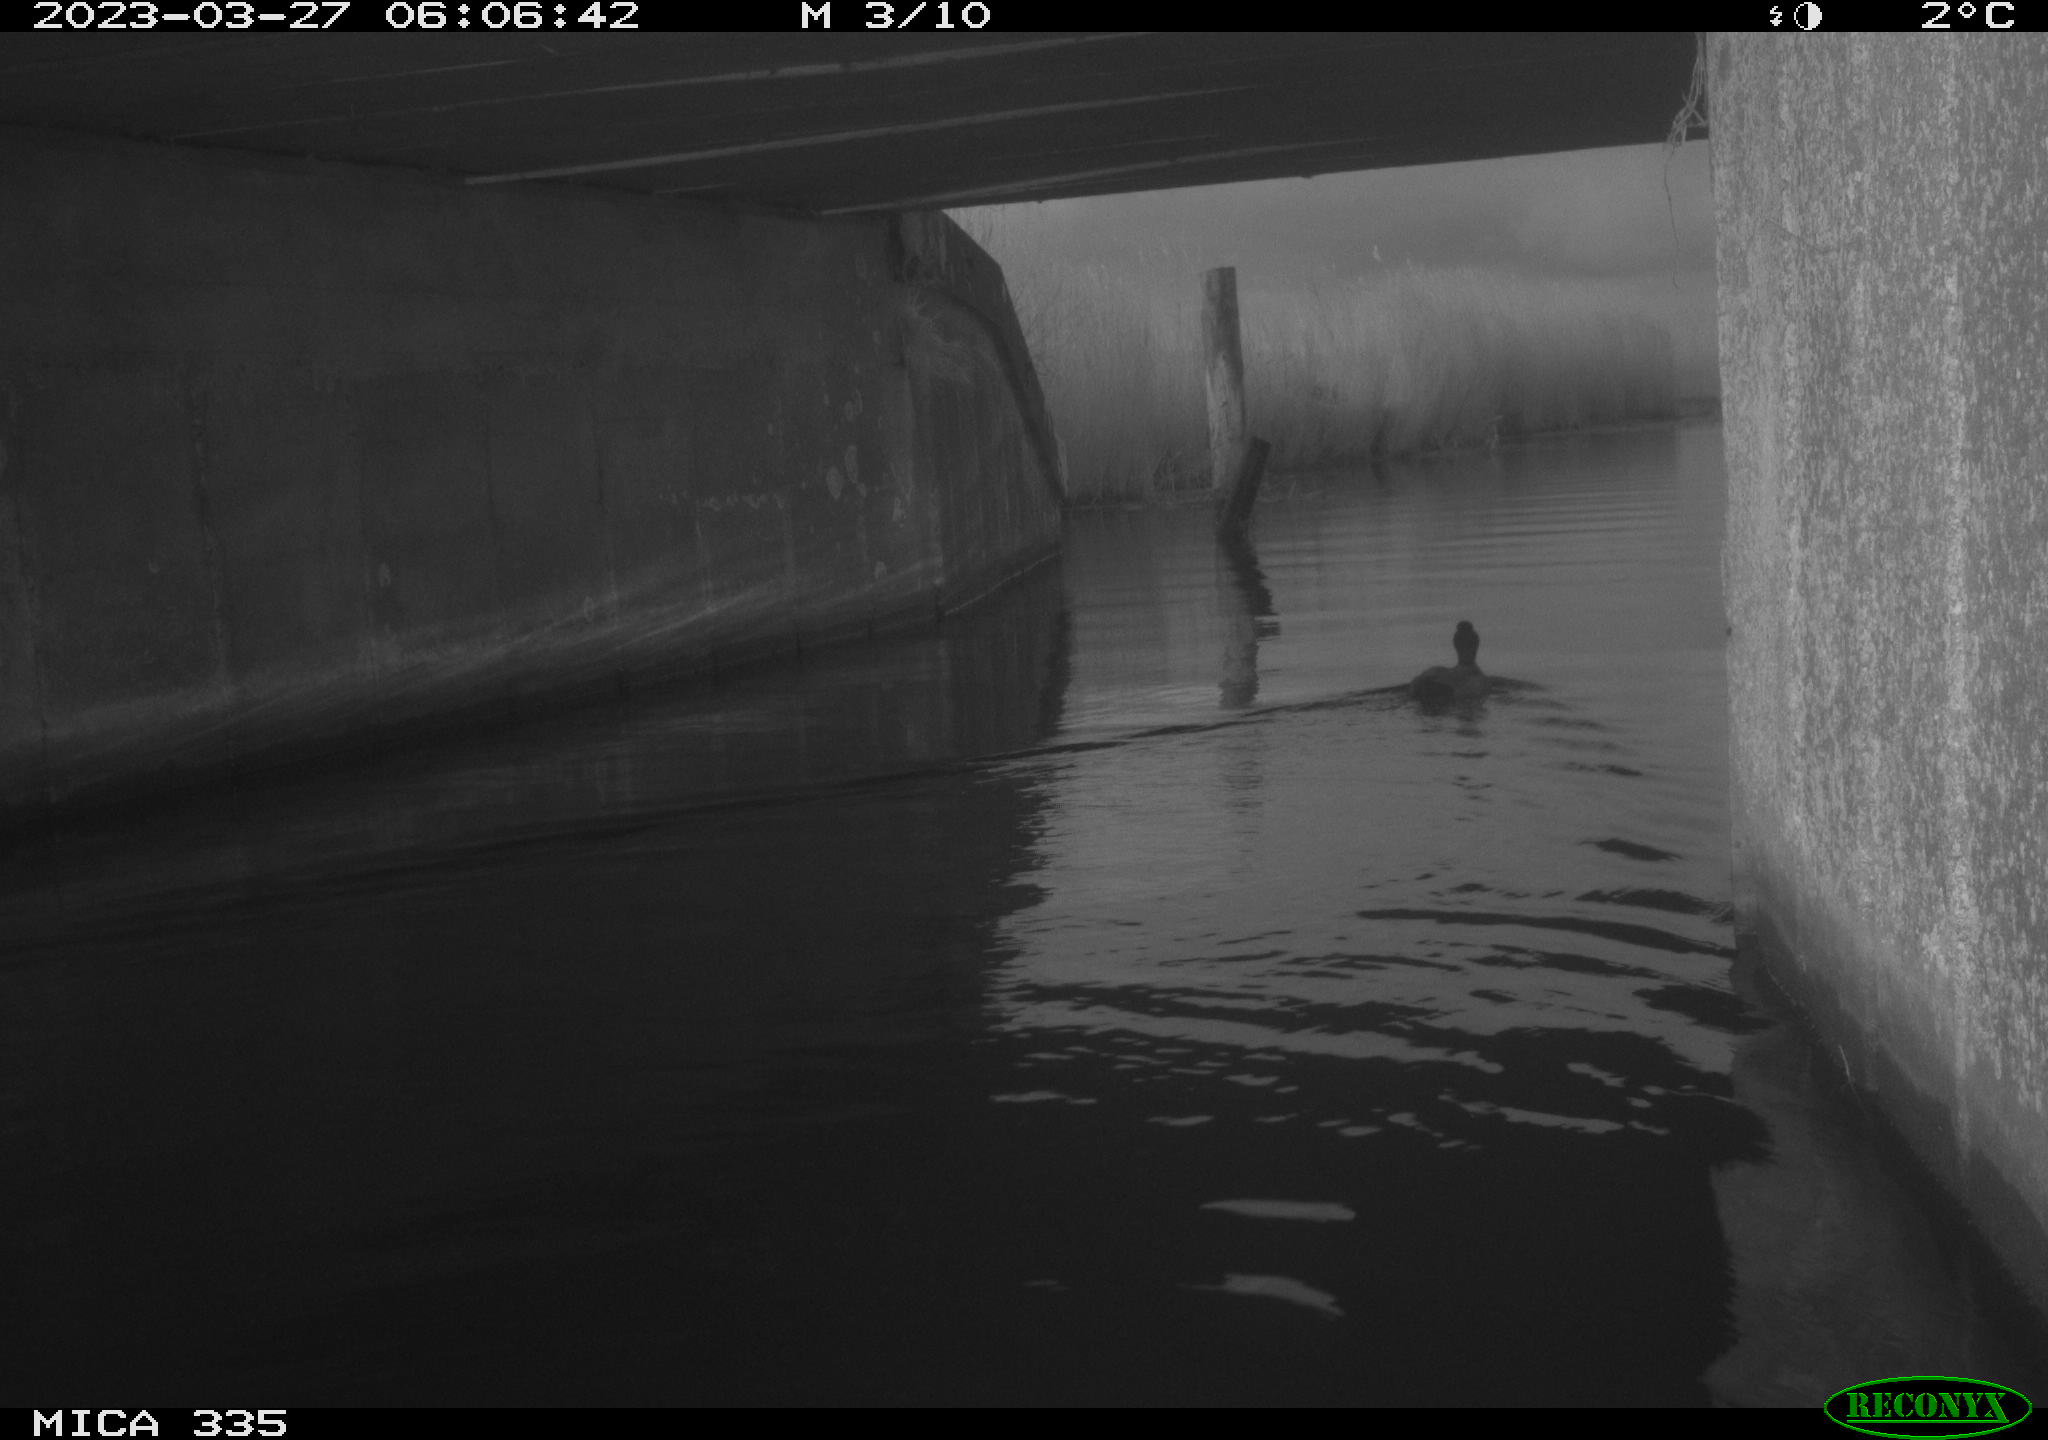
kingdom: Animalia
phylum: Chordata
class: Aves
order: Anseriformes
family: Anatidae
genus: Anas
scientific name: Anas
